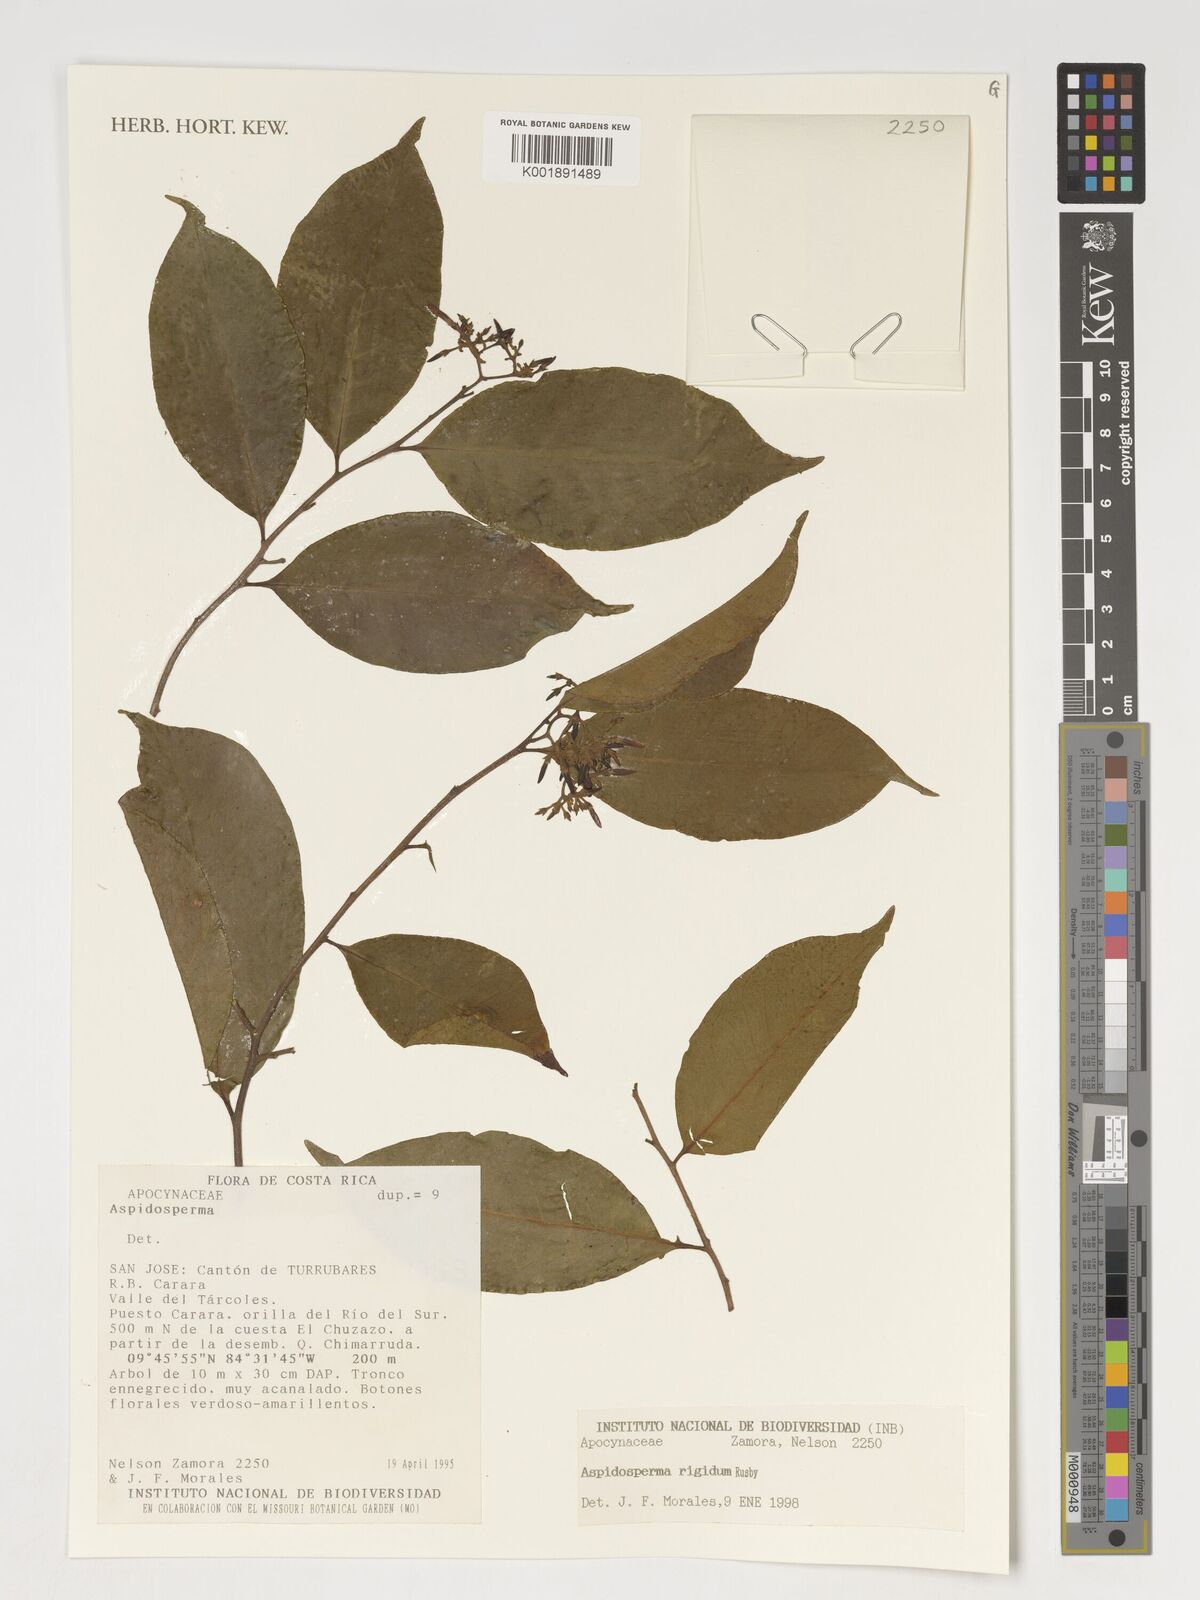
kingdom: Plantae
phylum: Tracheophyta
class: Magnoliopsida
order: Gentianales
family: Apocynaceae
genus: Aspidosperma
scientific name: Aspidosperma rigidum
